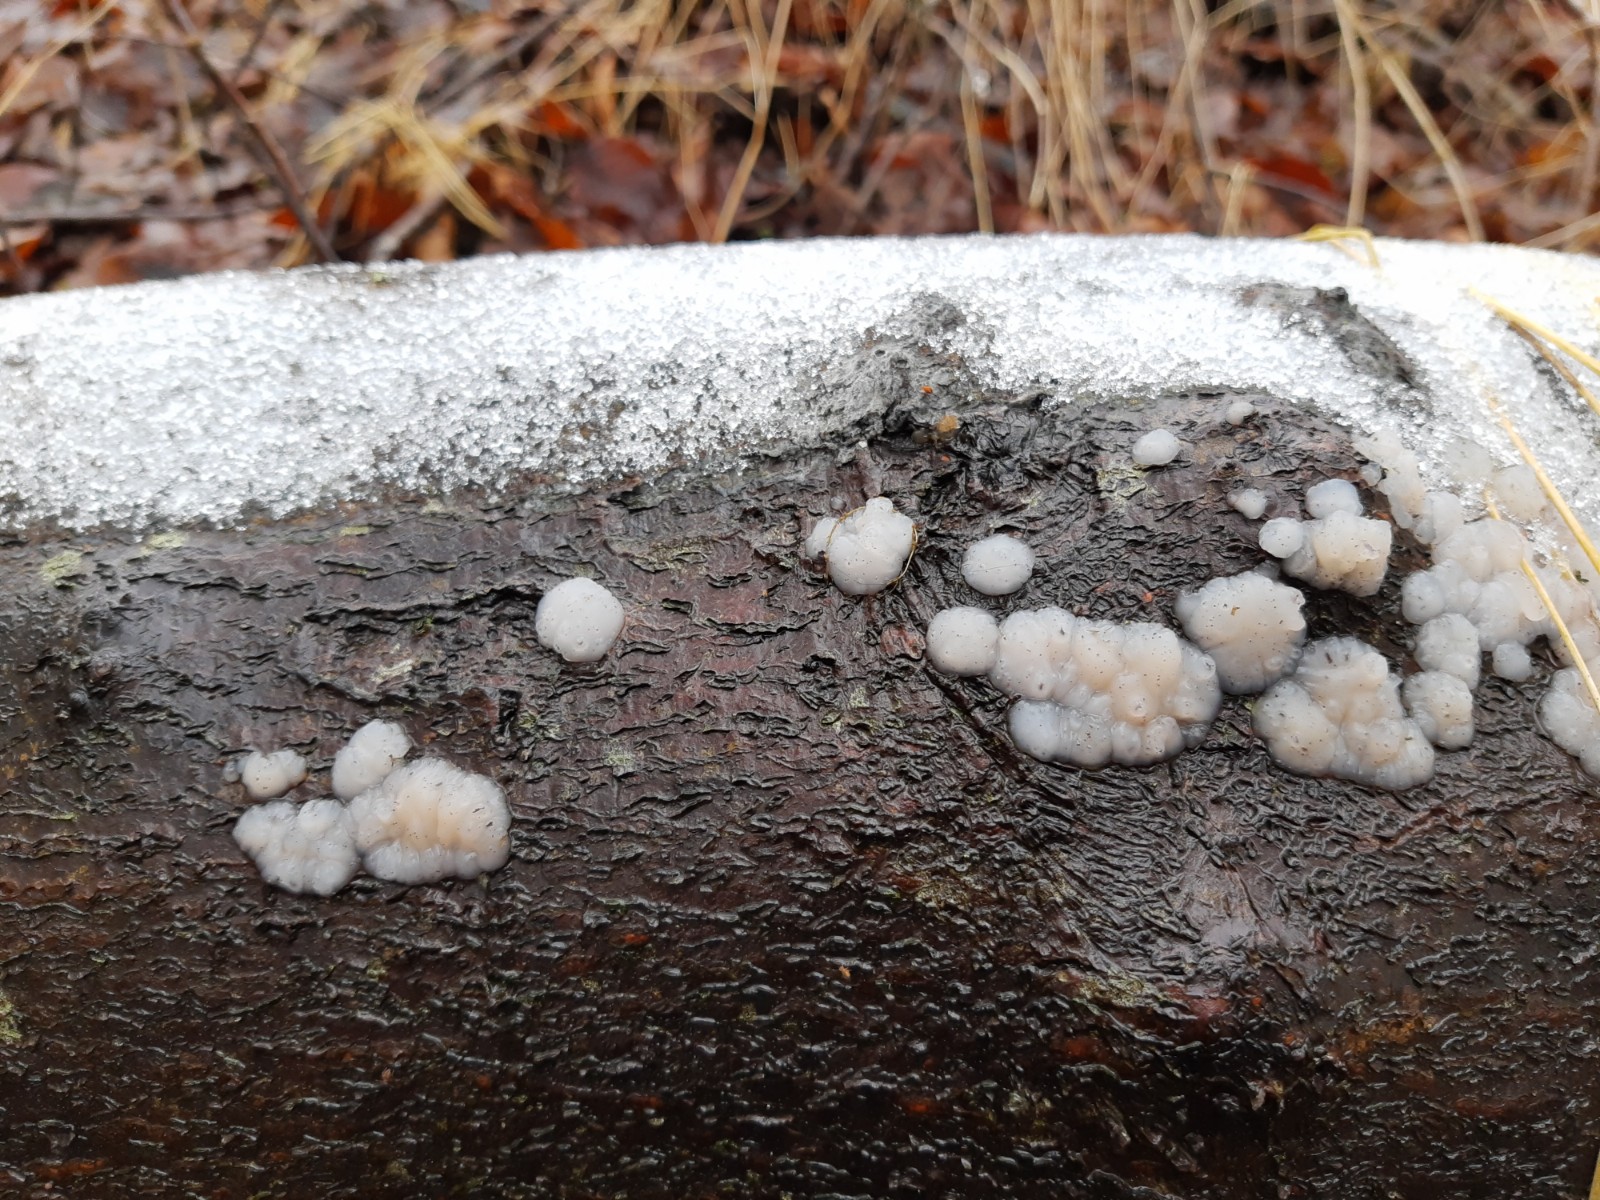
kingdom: Fungi
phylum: Basidiomycota
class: Agaricomycetes
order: Auriculariales
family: Auriculariaceae
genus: Exidia
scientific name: Exidia thuretiana
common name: hvidlig bævretop
